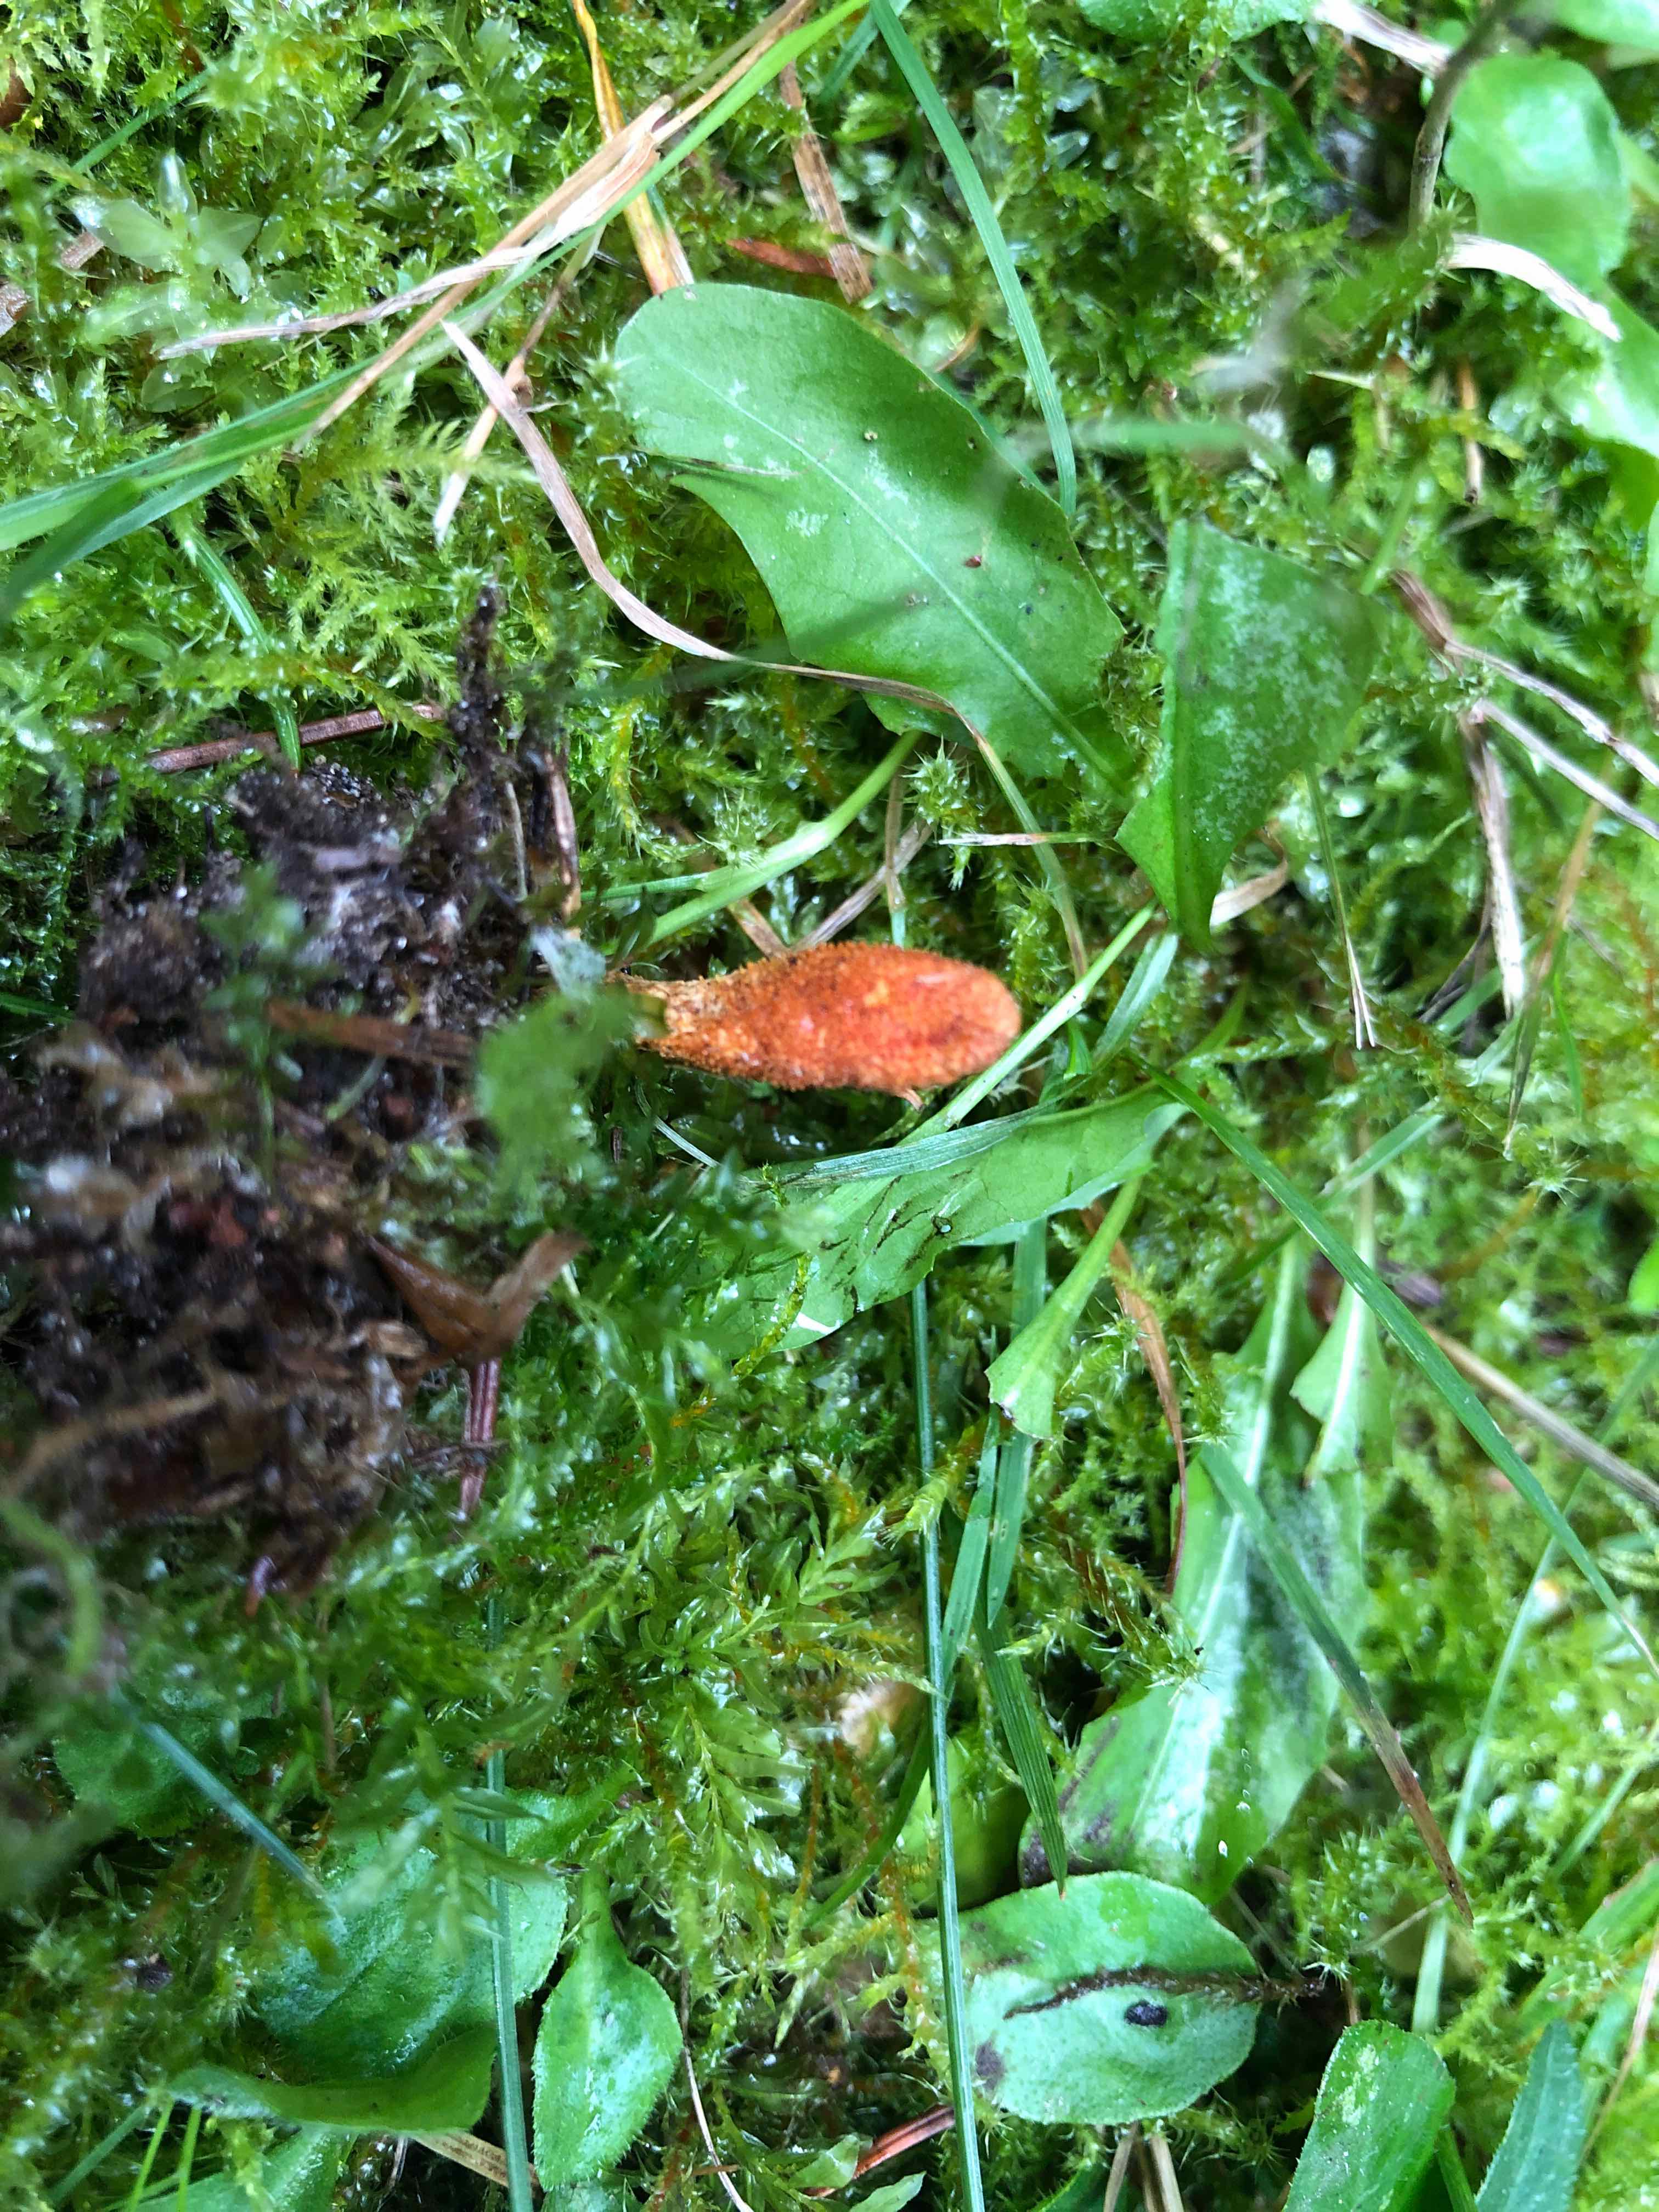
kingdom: Fungi
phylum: Ascomycota
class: Sordariomycetes
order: Hypocreales
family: Cordycipitaceae
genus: Cordyceps
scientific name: Cordyceps militaris
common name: puppe-snyltekølle
